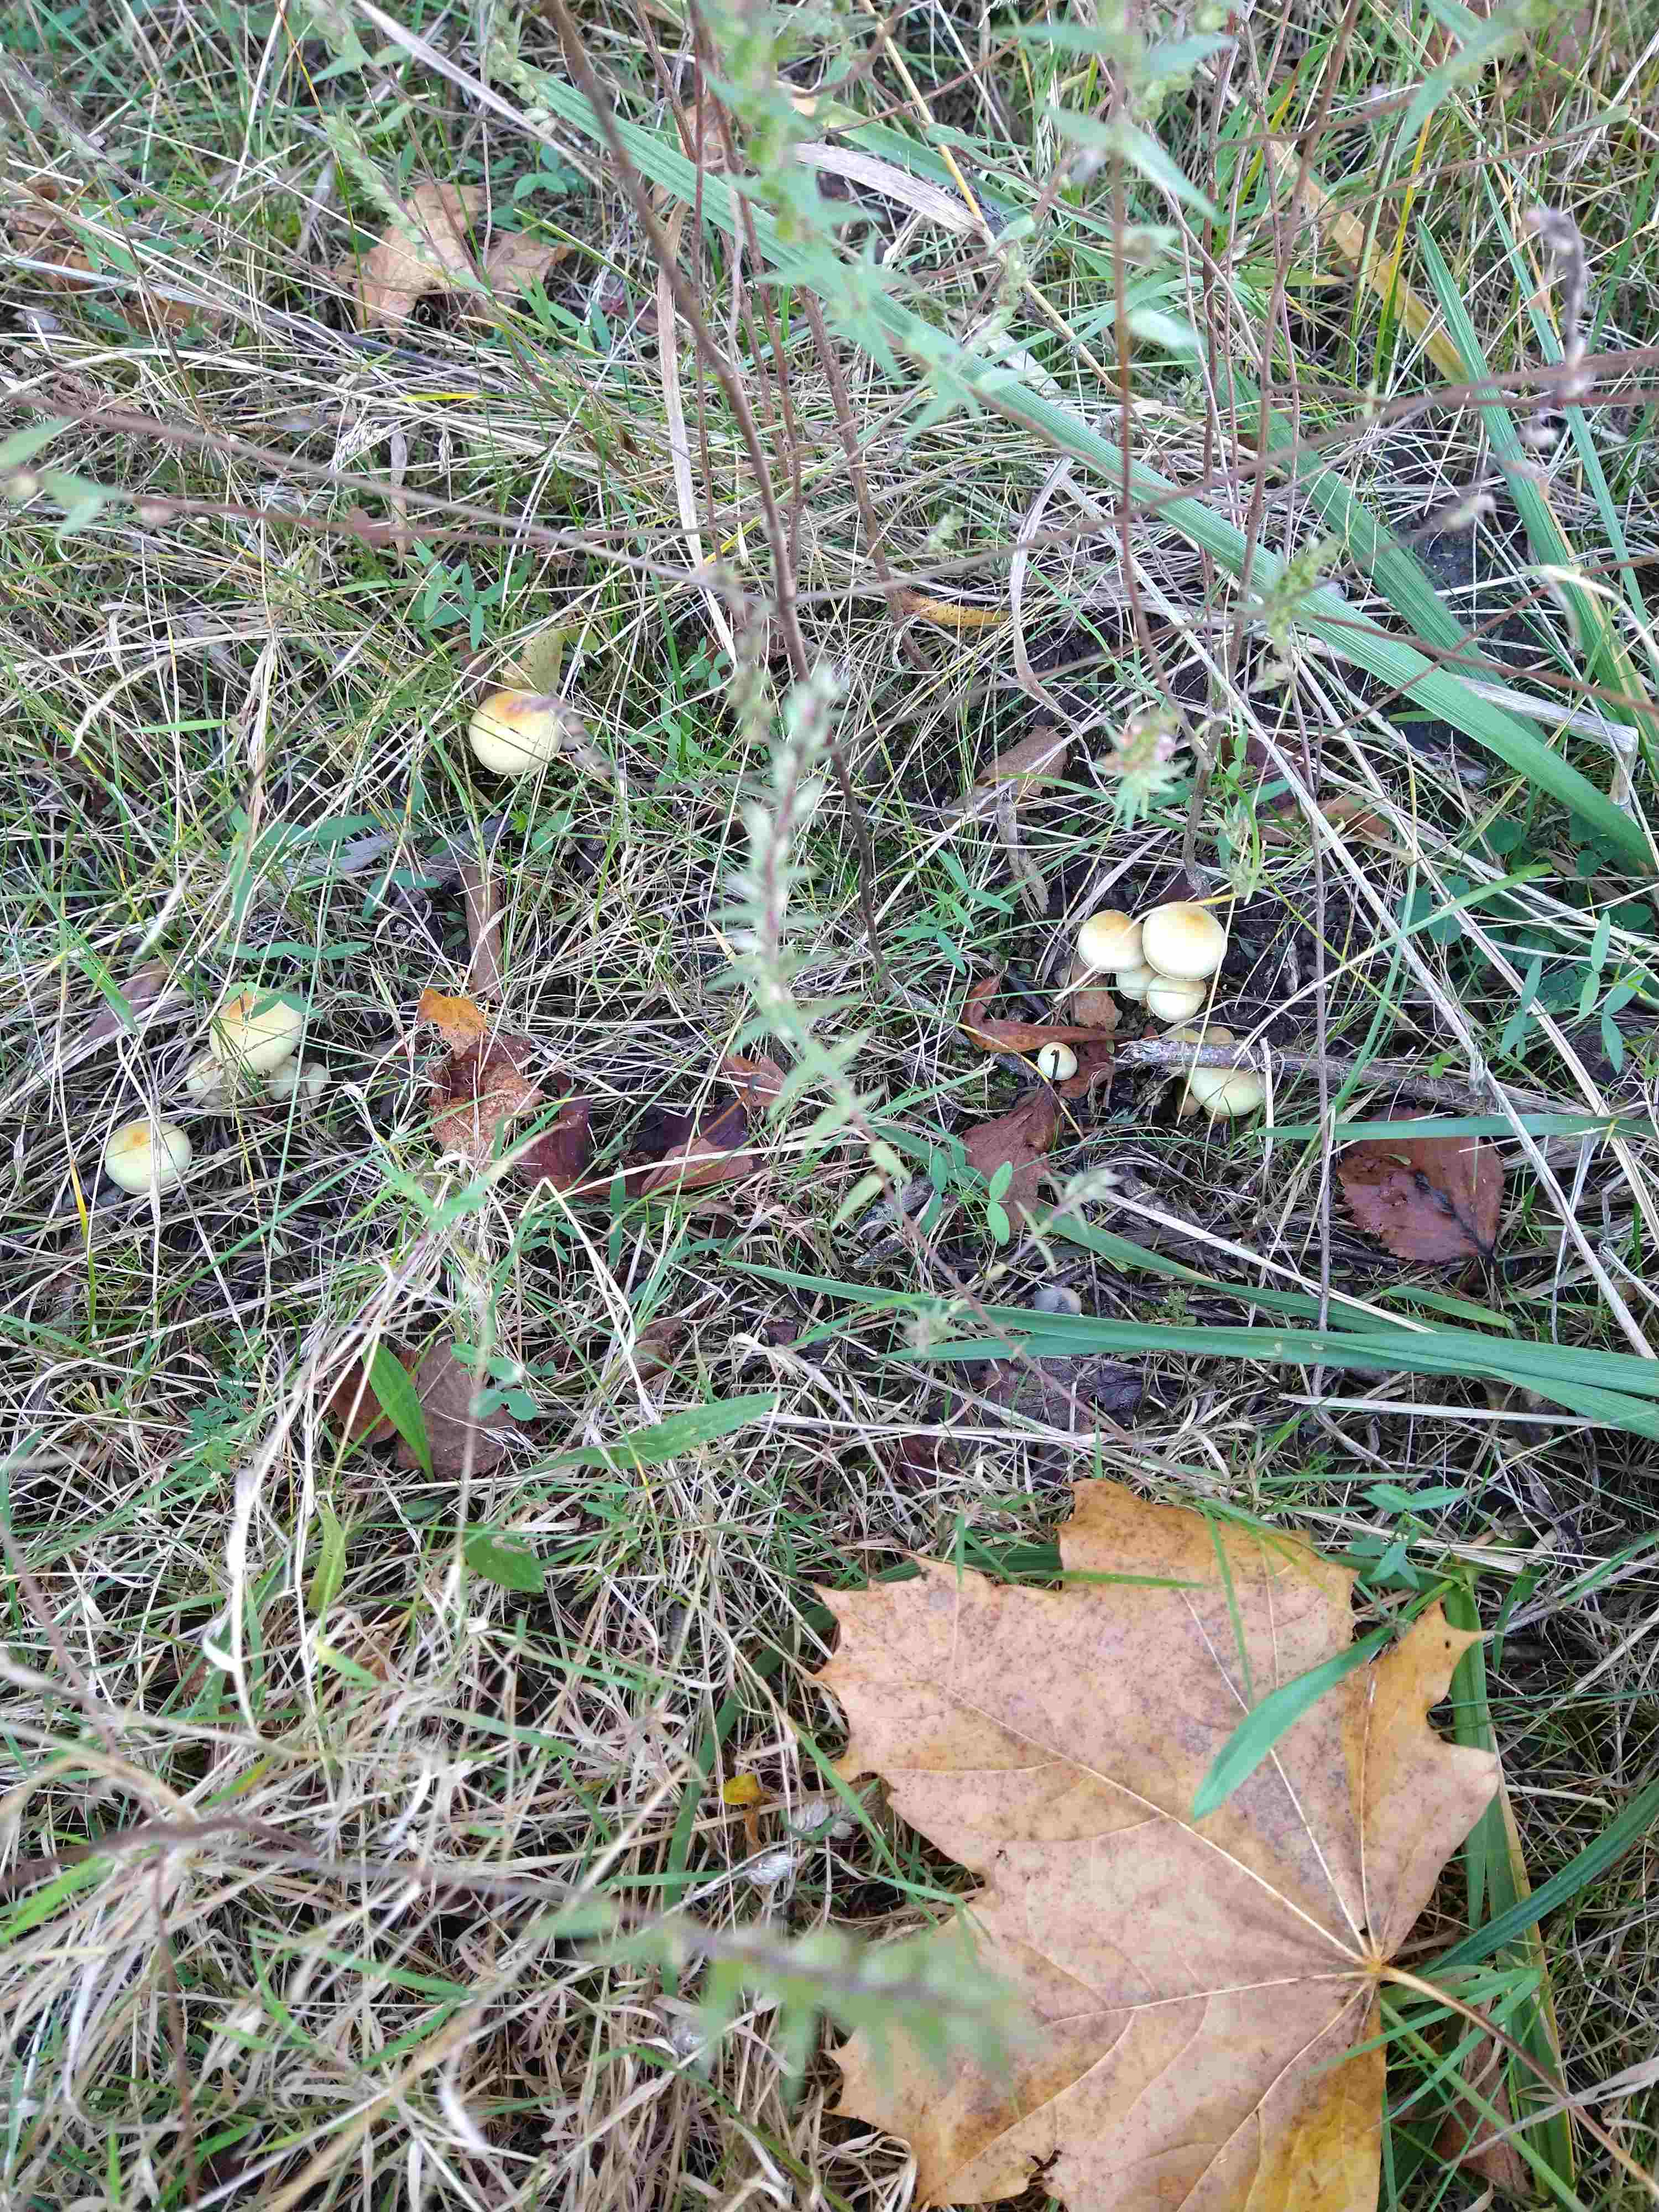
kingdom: Fungi
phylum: Basidiomycota
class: Agaricomycetes
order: Agaricales
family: Strophariaceae
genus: Hypholoma
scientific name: Hypholoma fasciculare
